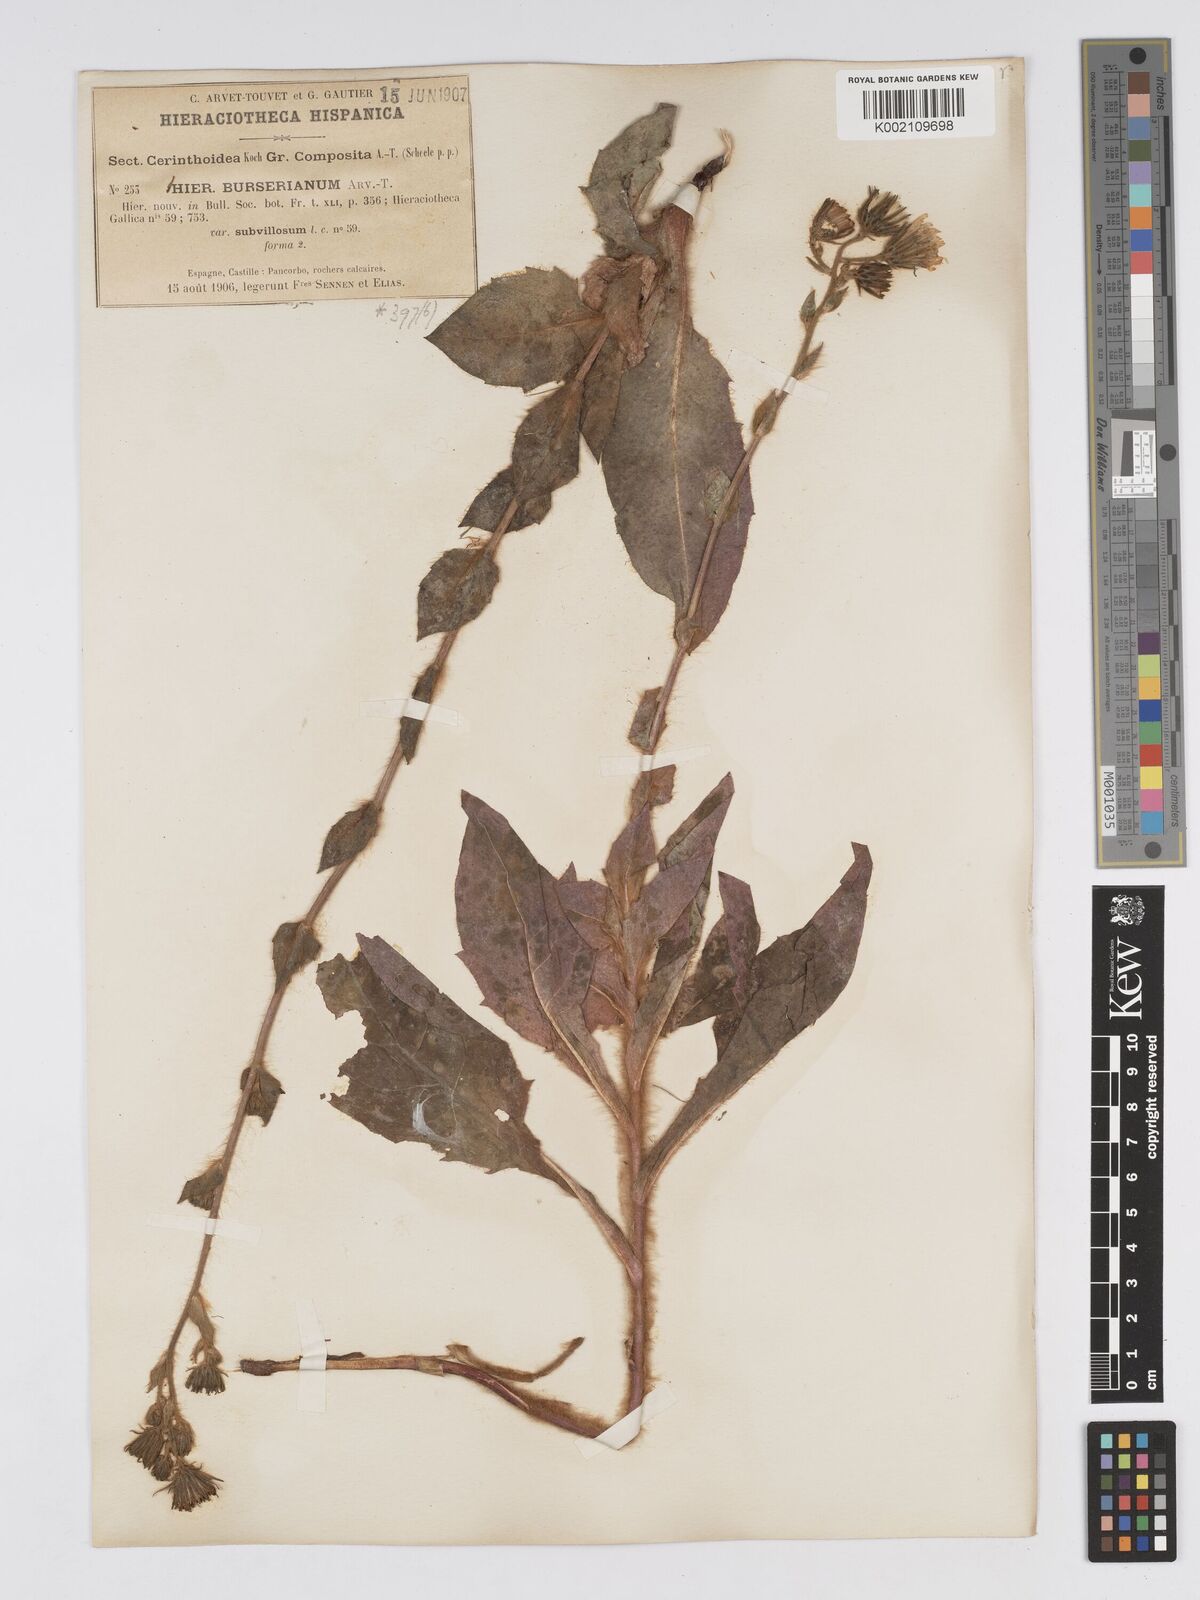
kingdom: Plantae
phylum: Tracheophyta
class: Magnoliopsida
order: Asterales
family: Asteraceae
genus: Hieracium
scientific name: Hieracium nobile
